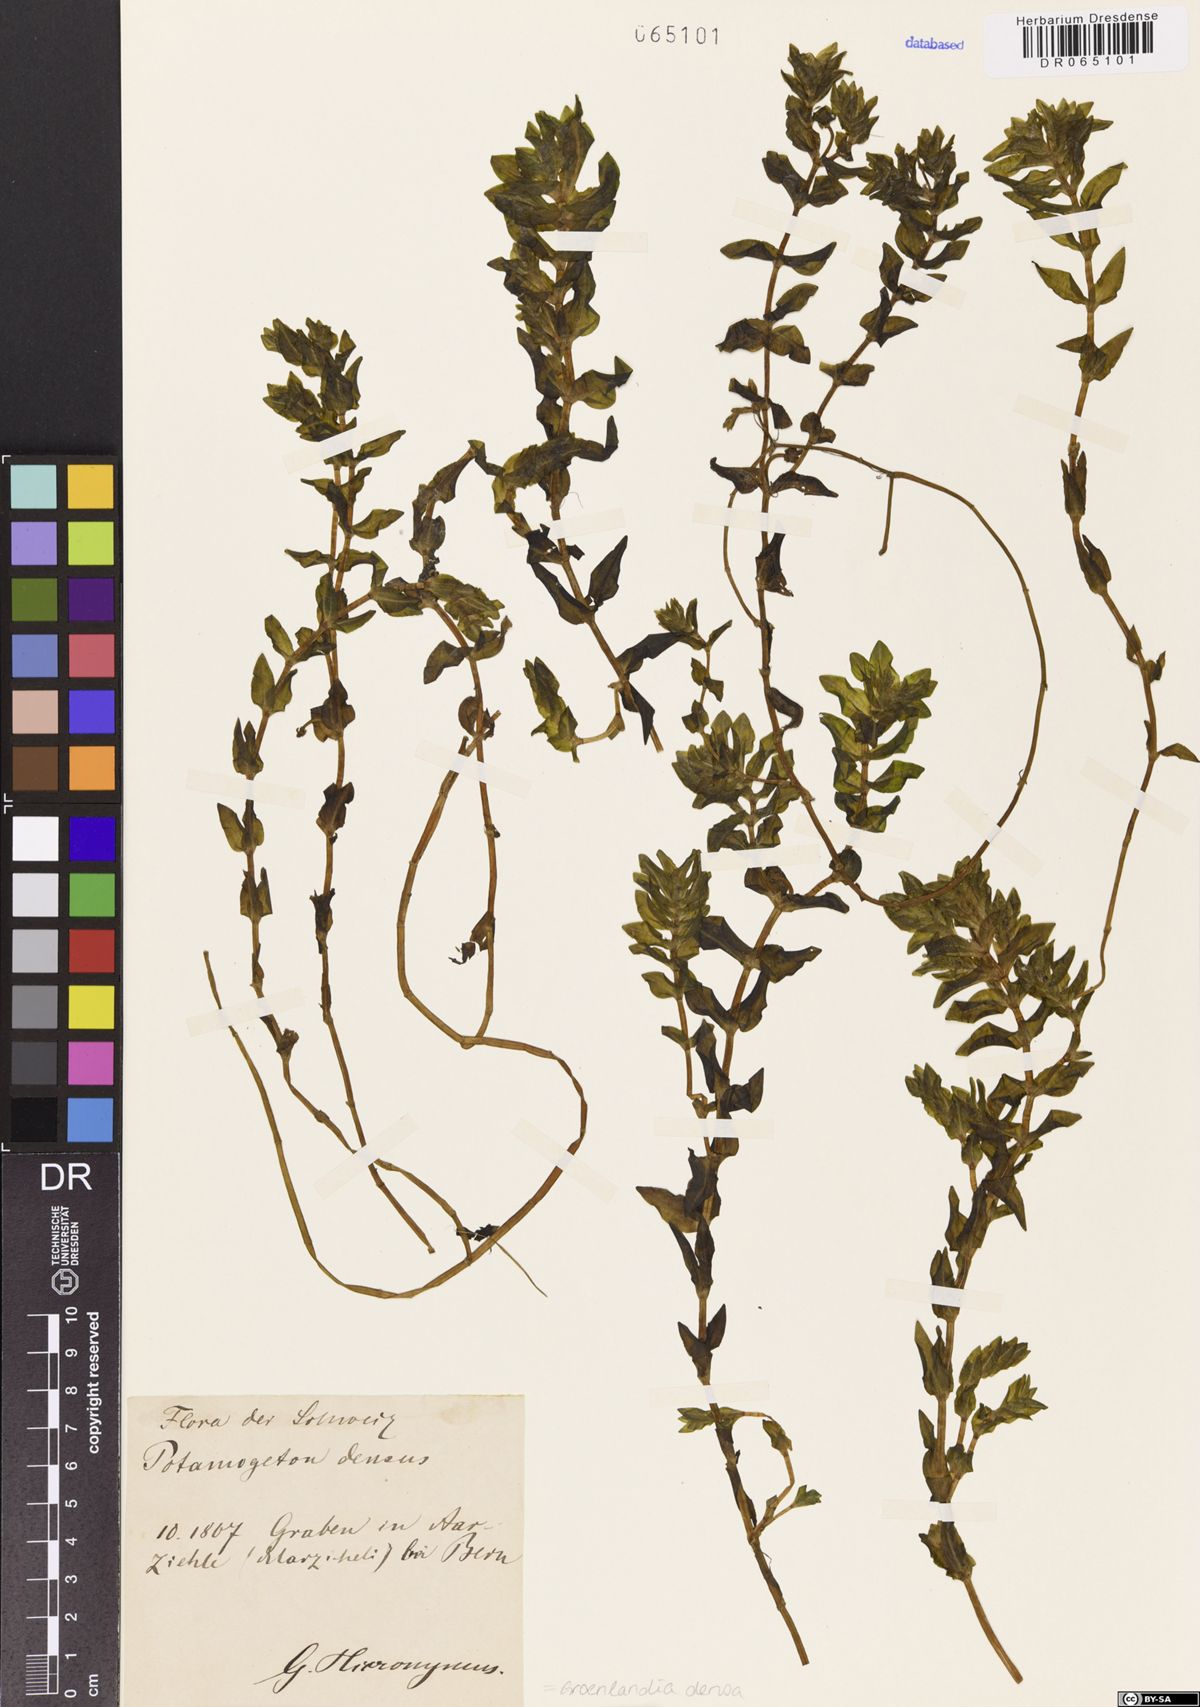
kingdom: Plantae
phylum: Tracheophyta
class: Liliopsida
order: Alismatales
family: Potamogetonaceae
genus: Groenlandia
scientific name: Groenlandia densa
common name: Opposite-leaved pondweed
